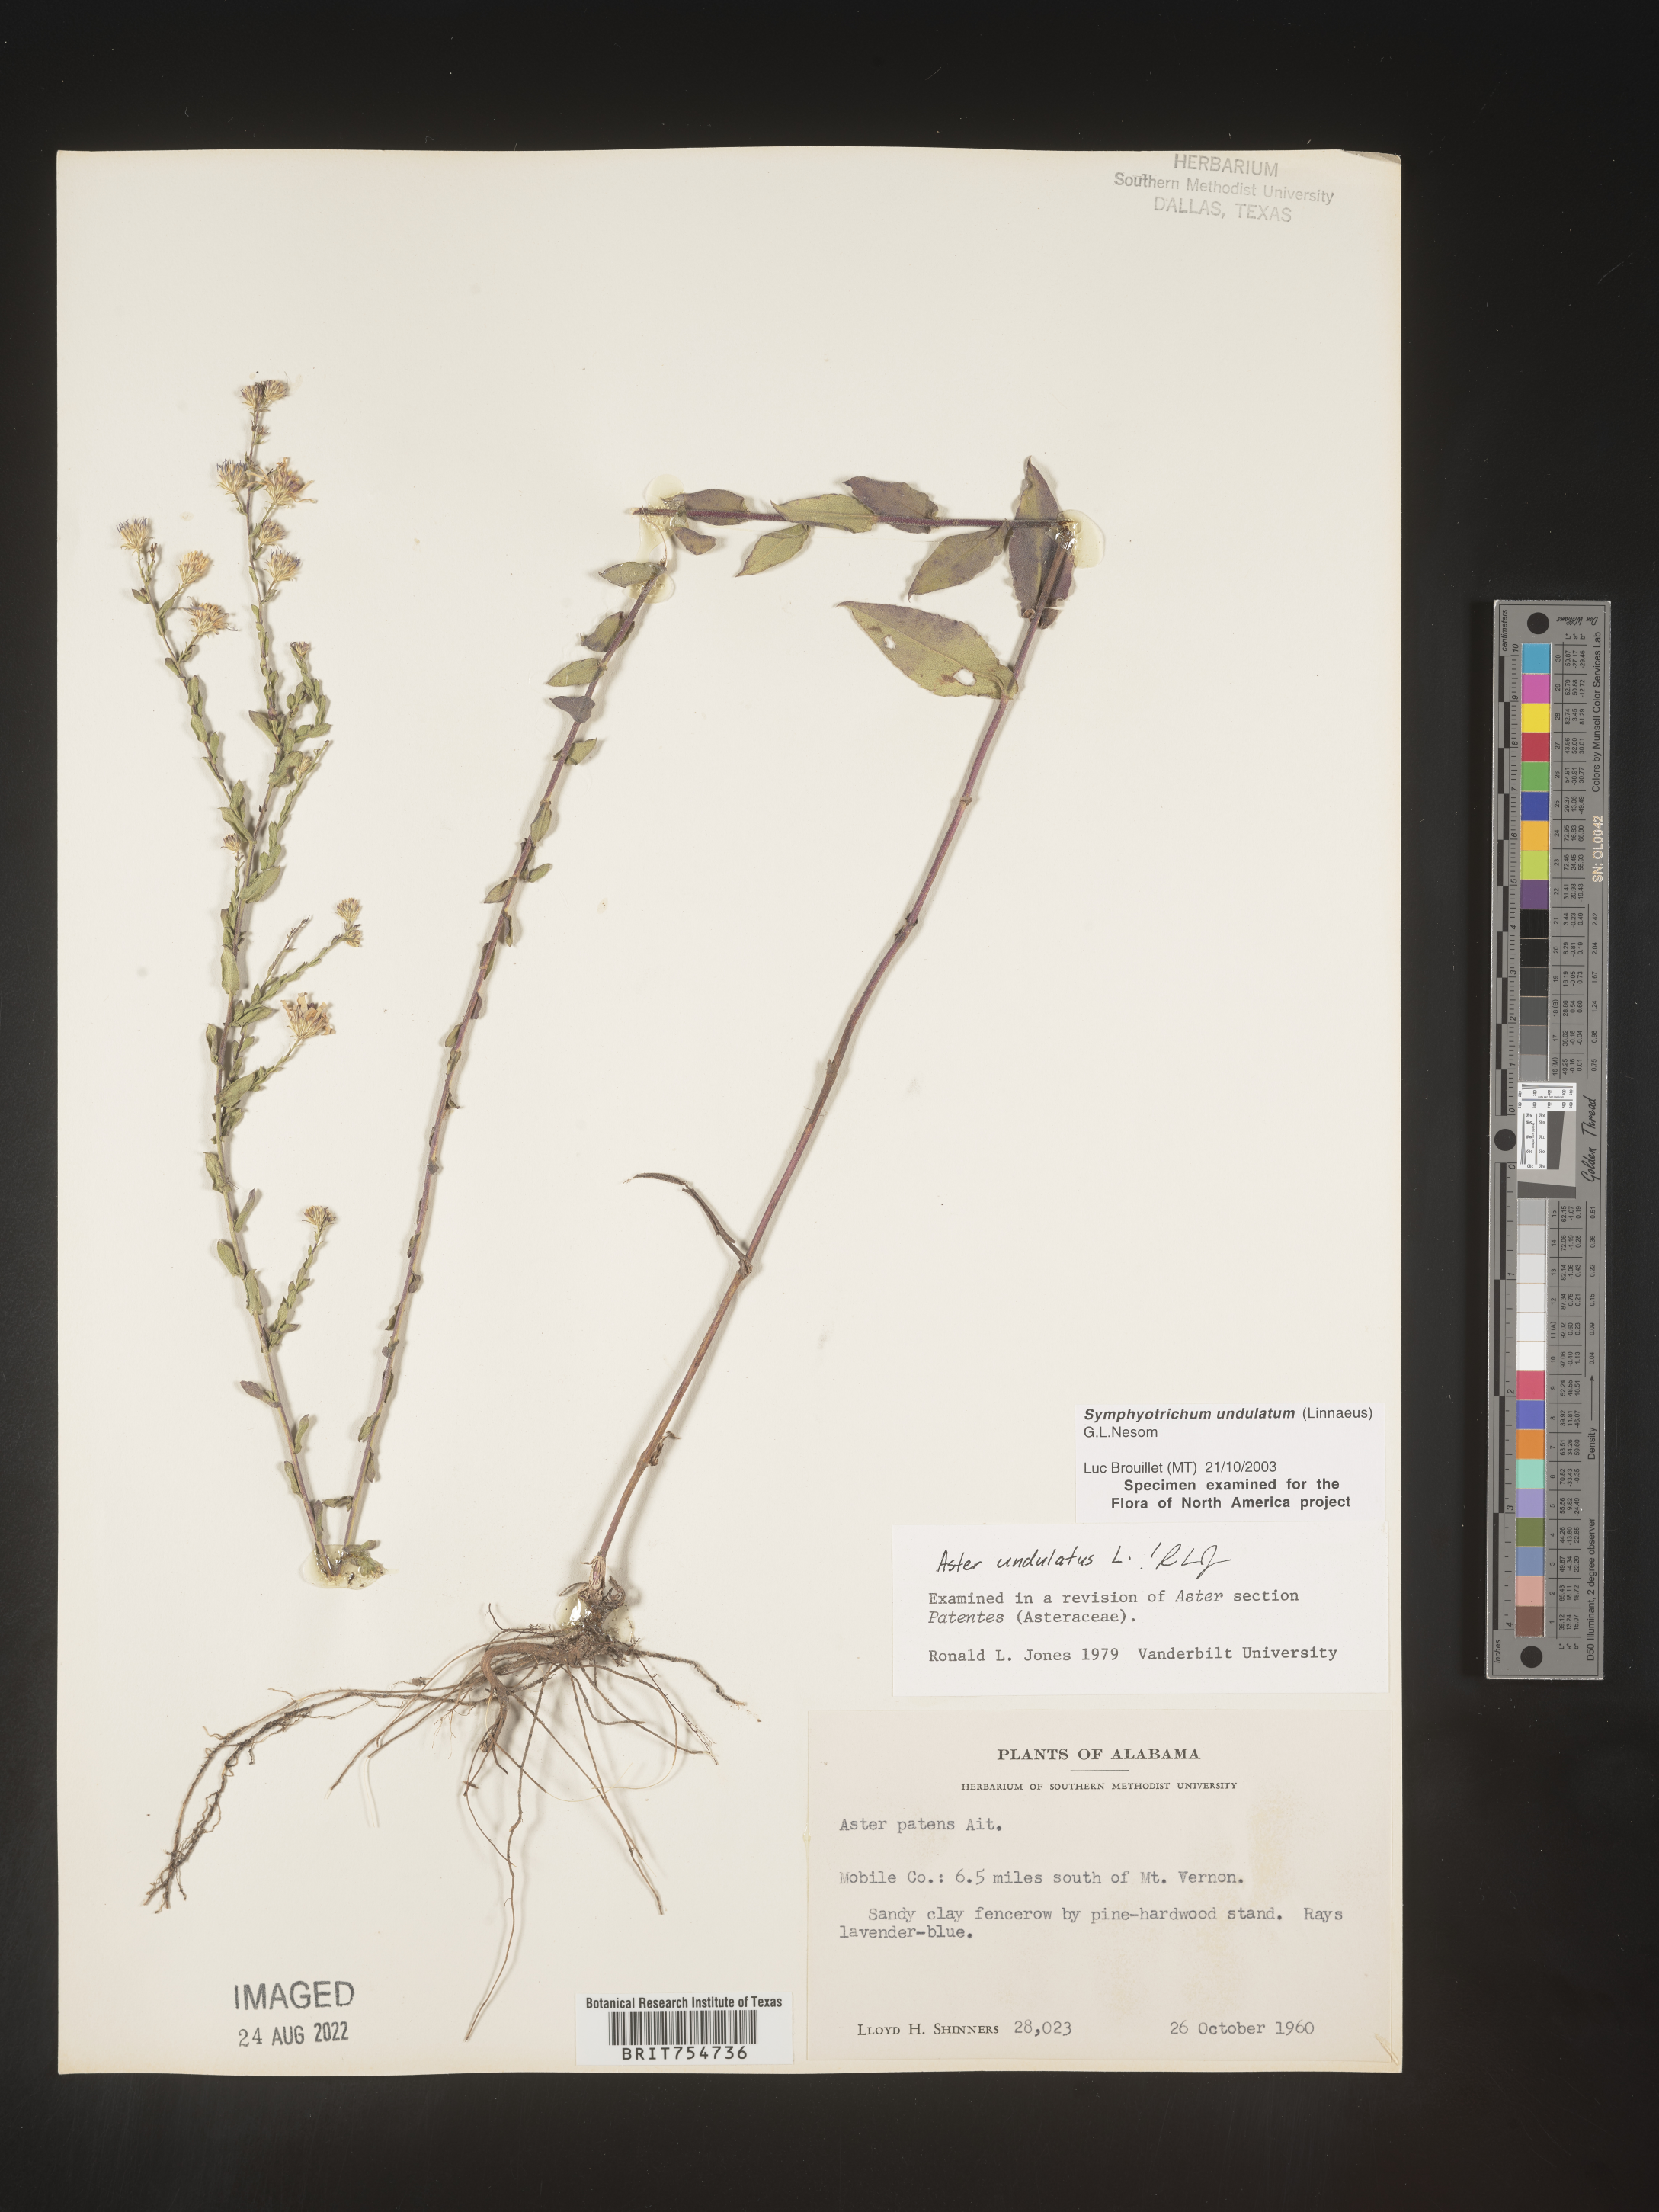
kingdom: Plantae
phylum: Tracheophyta
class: Magnoliopsida
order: Asterales
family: Asteraceae
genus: Symphyotrichum
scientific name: Symphyotrichum undulatum
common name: Clasping heart-leaf aster
